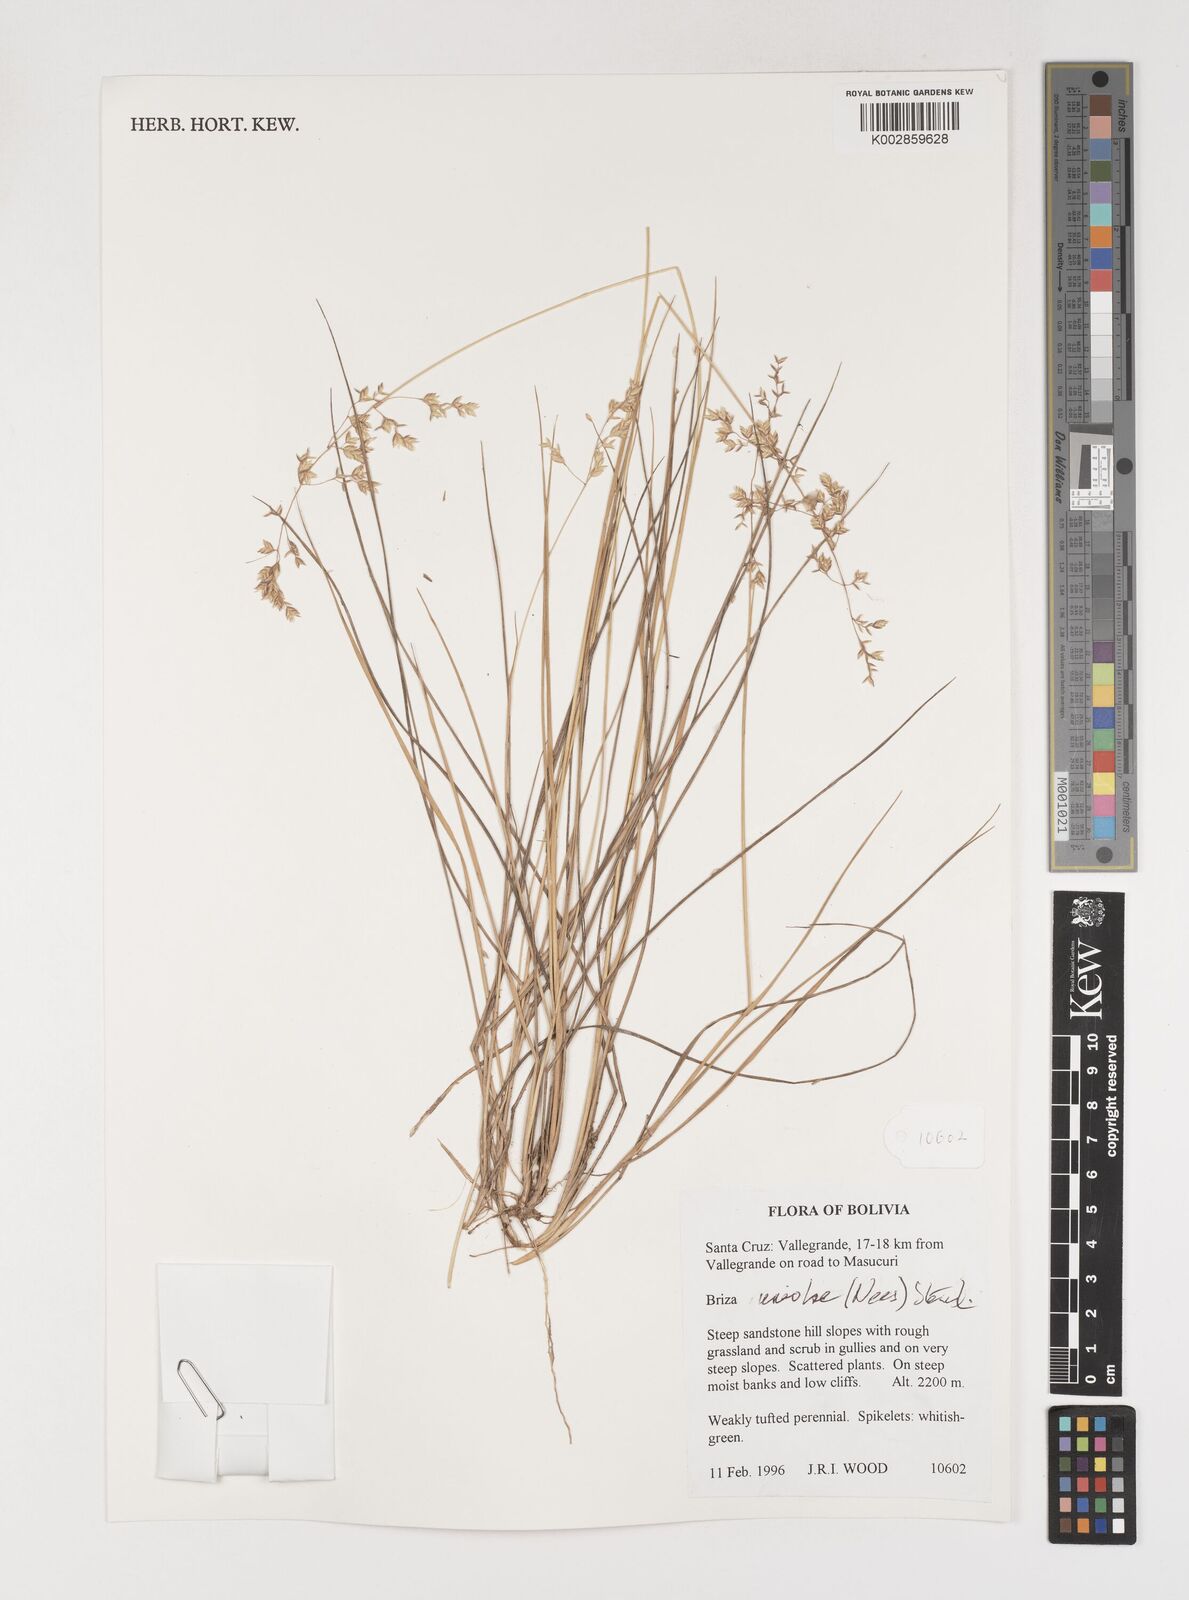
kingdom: Plantae
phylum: Tracheophyta
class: Liliopsida
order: Poales
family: Poaceae
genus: Poidium
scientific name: Poidium uniolae
